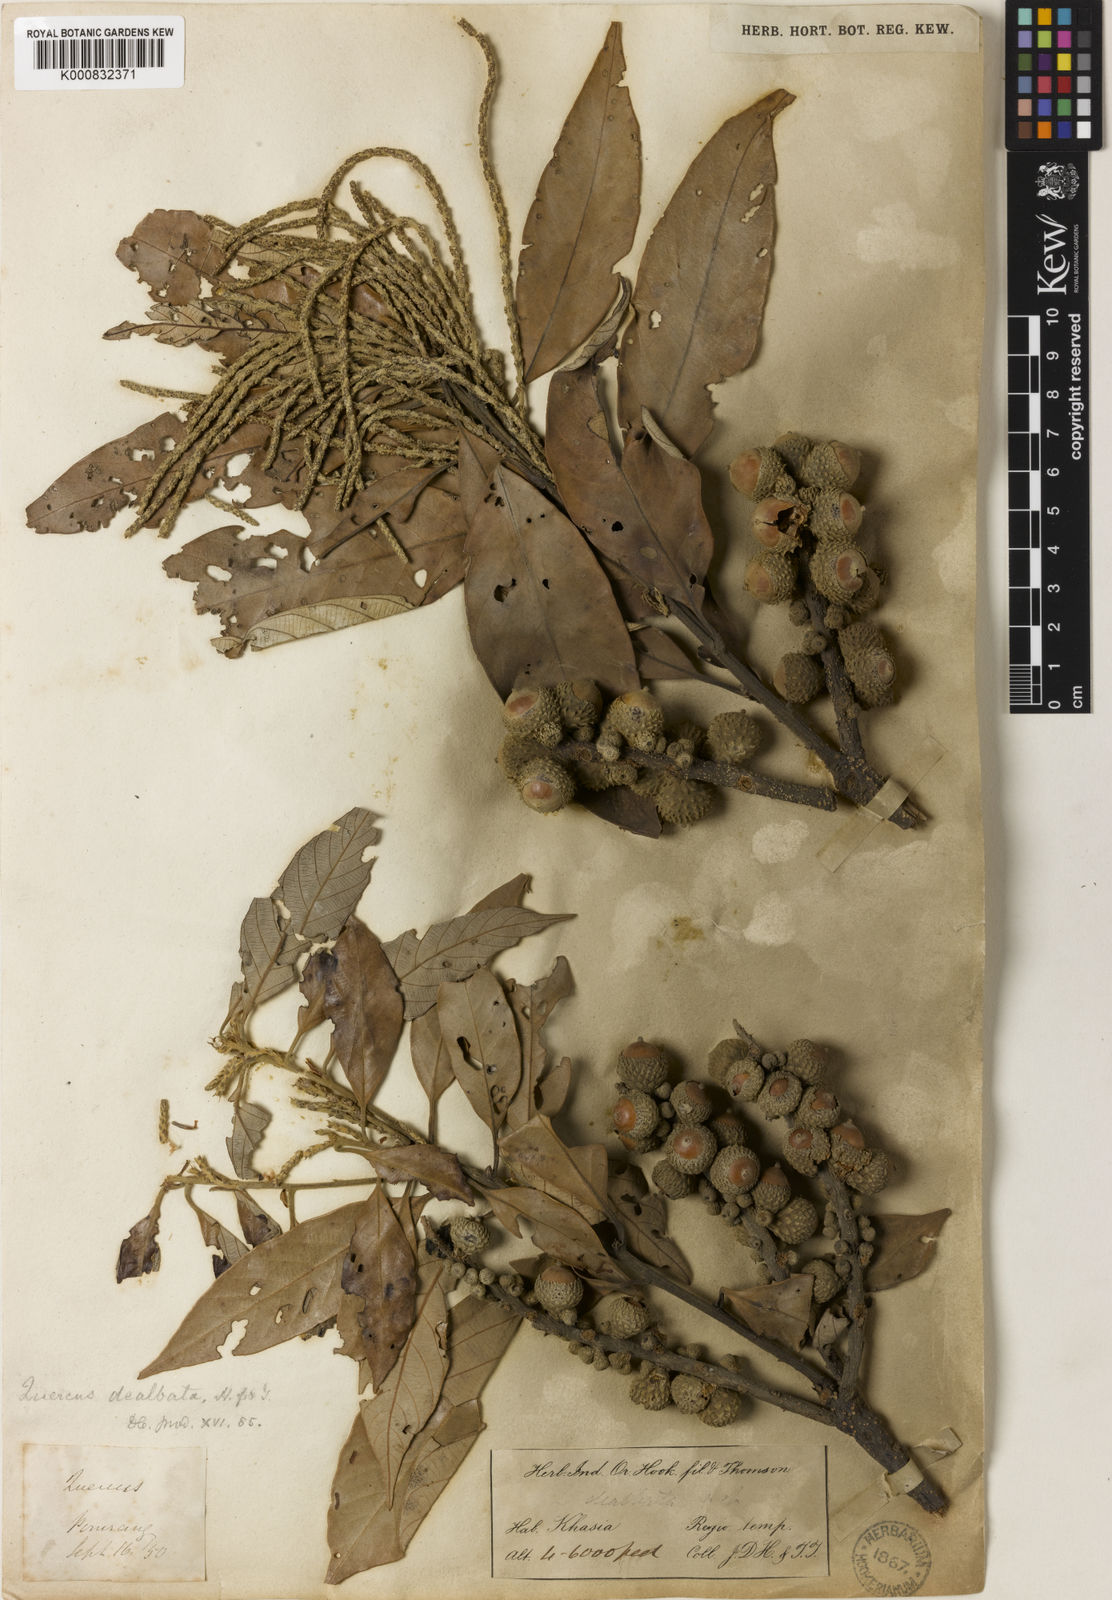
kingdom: Plantae
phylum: Tracheophyta
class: Magnoliopsida
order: Fagales
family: Fagaceae
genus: Lithocarpus
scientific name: Lithocarpus dealbatus
